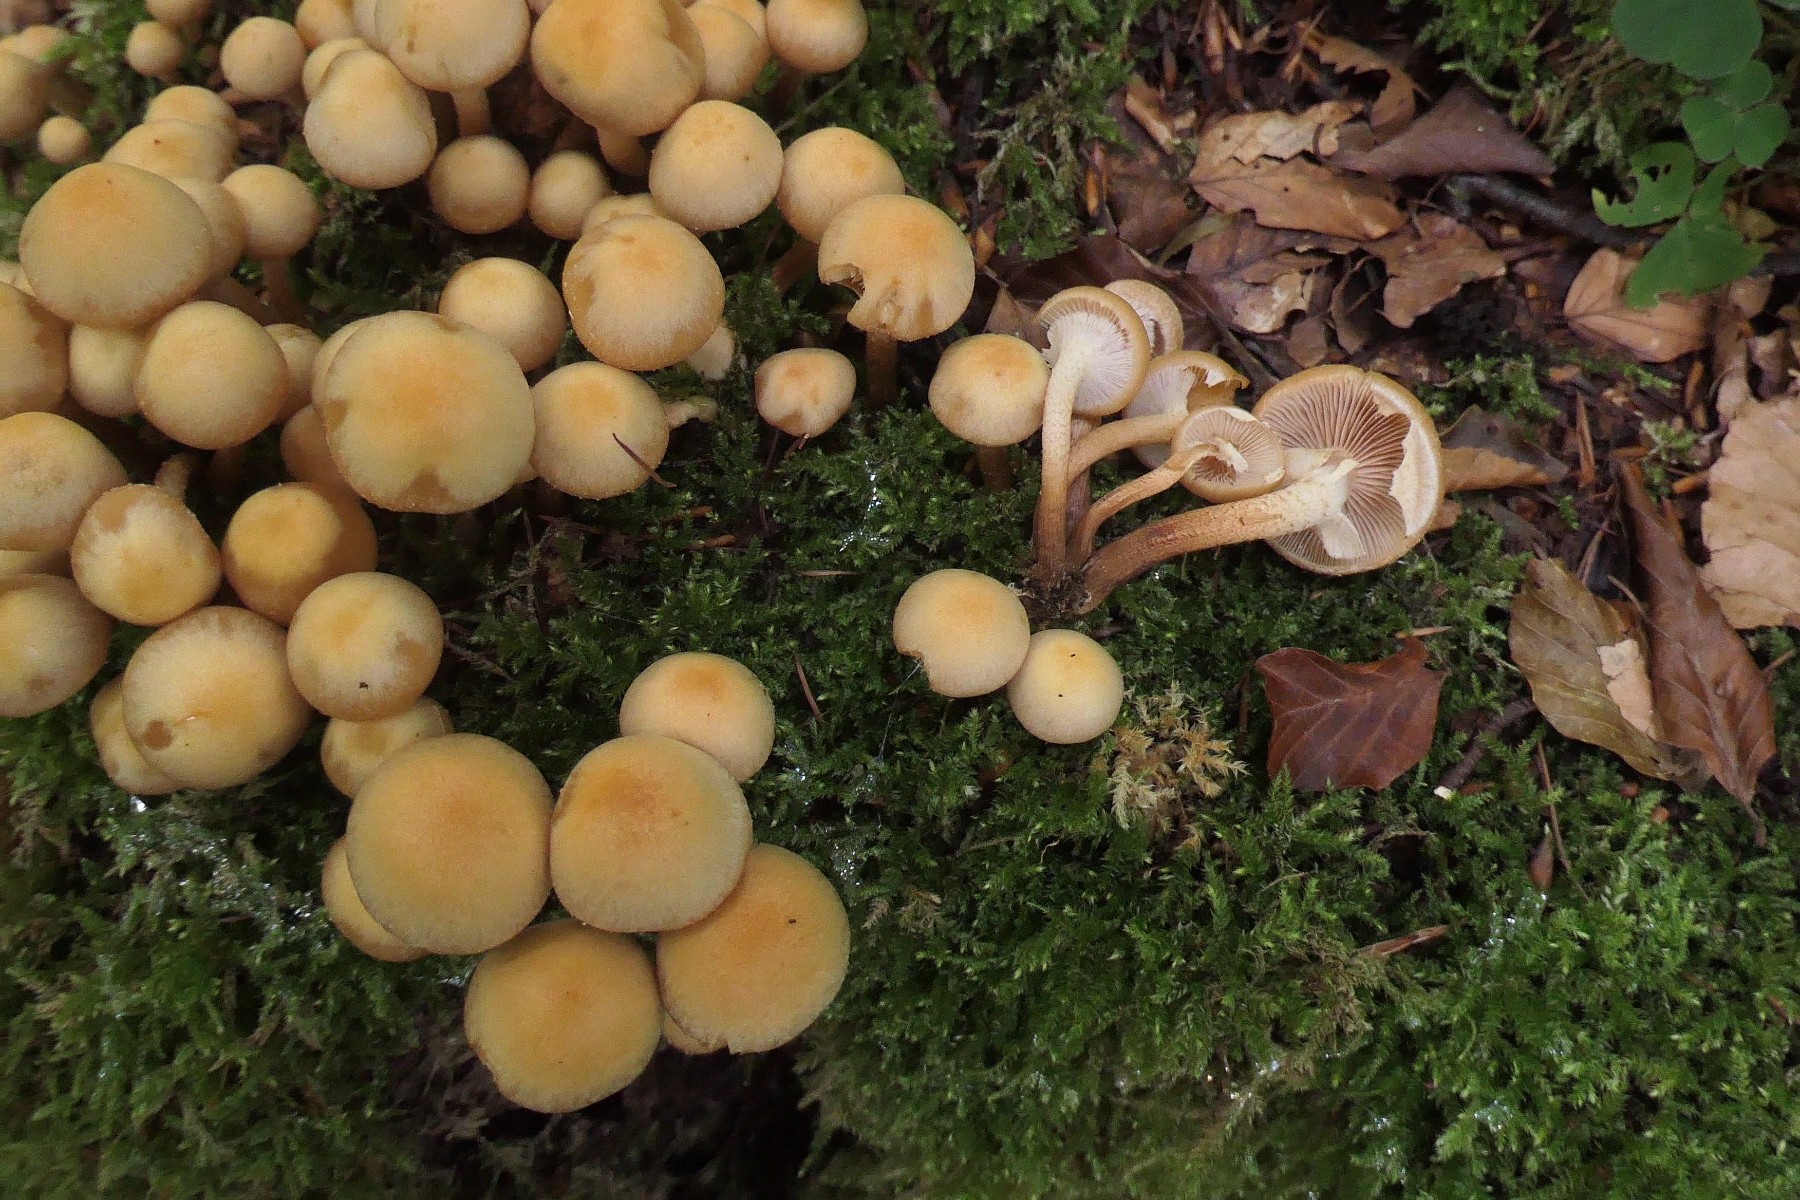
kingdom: Fungi
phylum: Basidiomycota
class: Agaricomycetes
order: Agaricales
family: Strophariaceae
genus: Kuehneromyces
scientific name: Kuehneromyces mutabilis
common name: foranderlig skælhat
